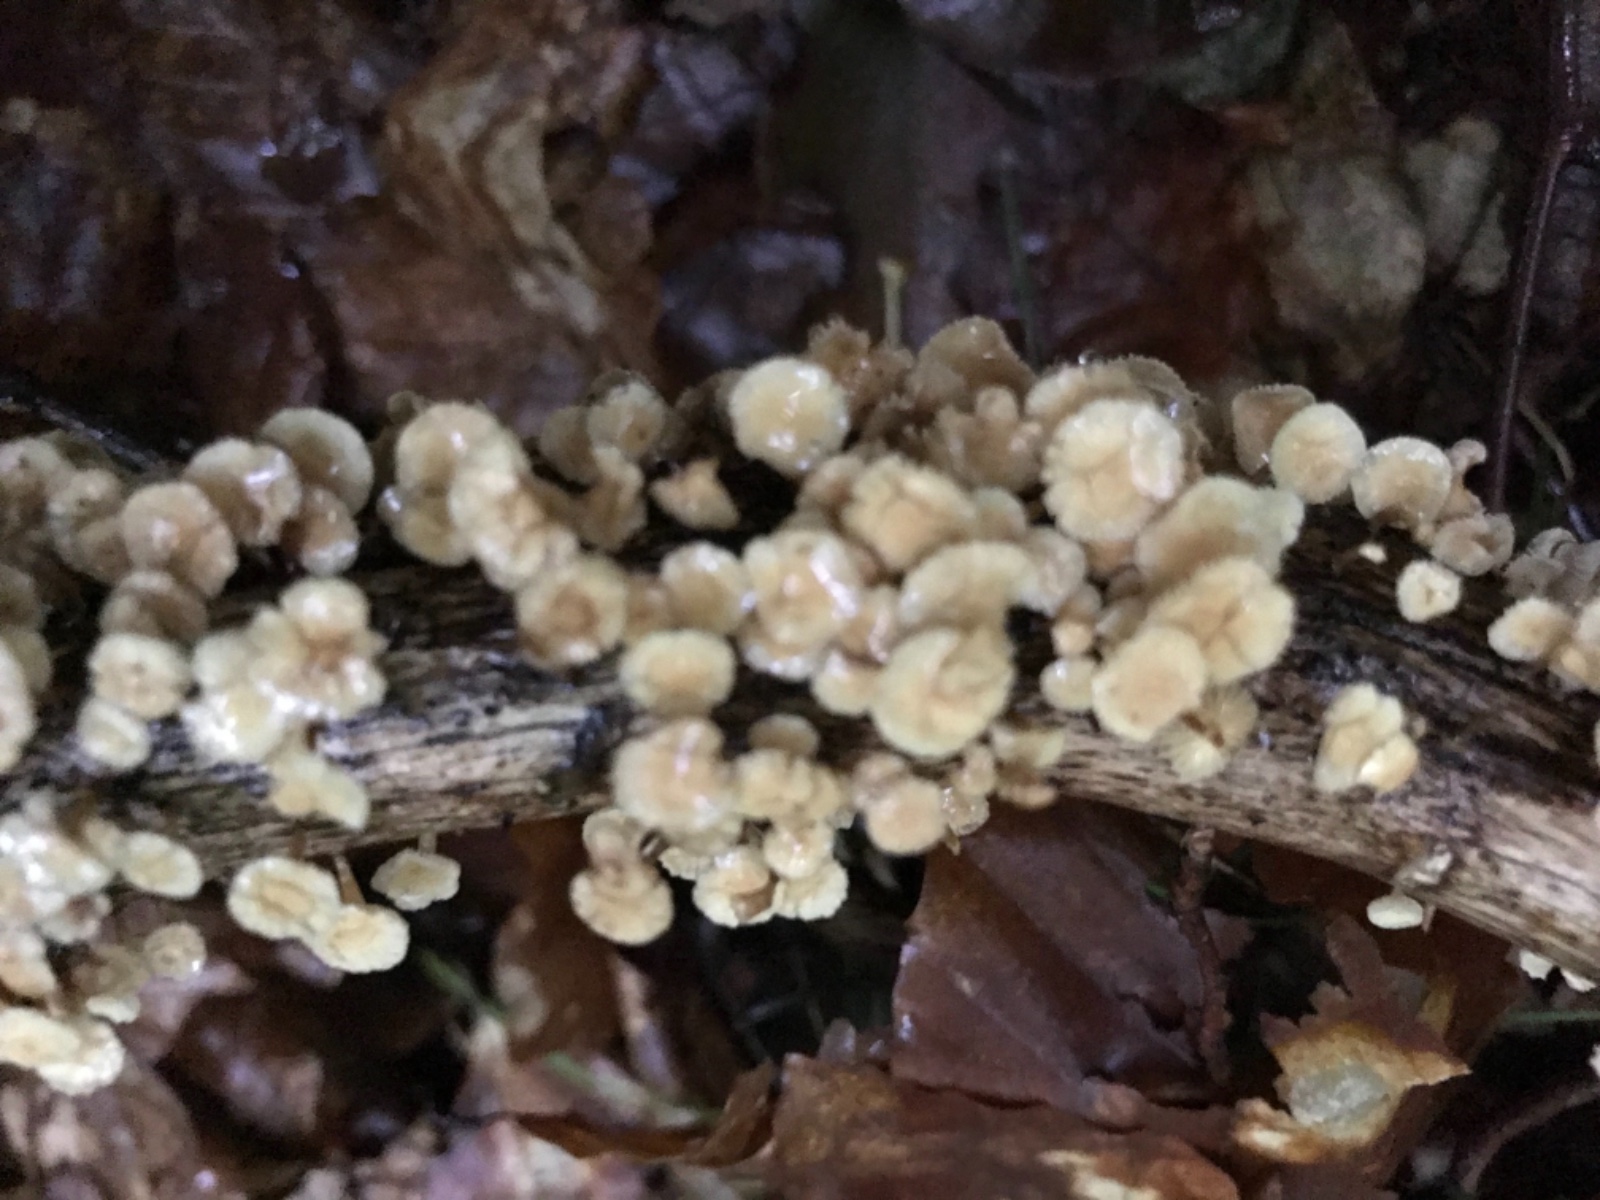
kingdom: Fungi
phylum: Basidiomycota
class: Agaricomycetes
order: Agaricales
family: Omphalotaceae
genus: Collybiopsis
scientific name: Collybiopsis ramealis
